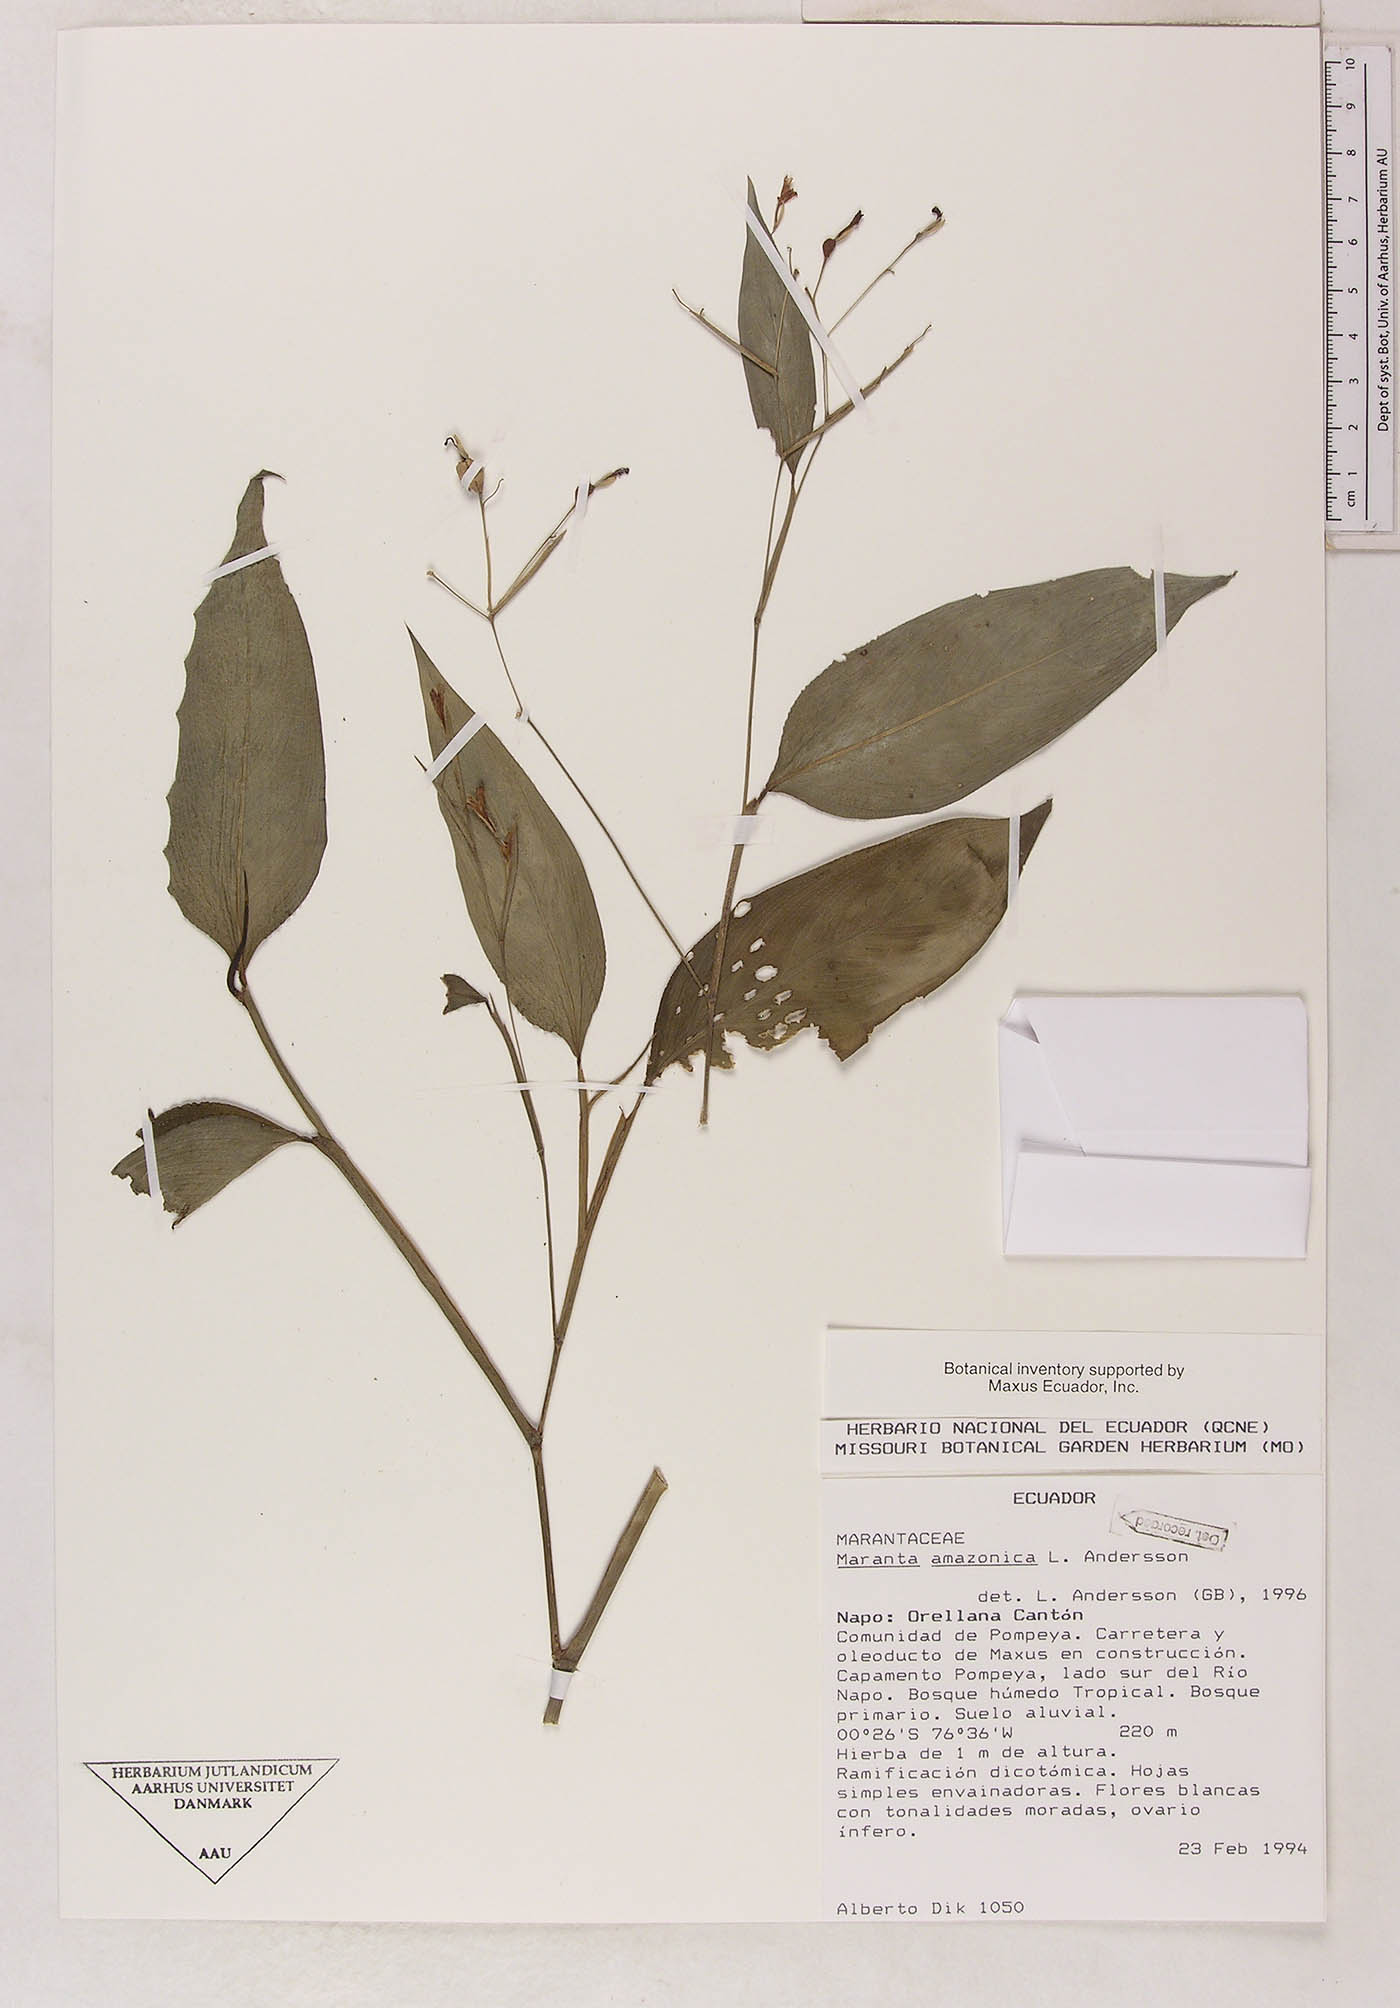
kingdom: Plantae
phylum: Tracheophyta
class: Liliopsida
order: Zingiberales
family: Marantaceae
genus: Maranta
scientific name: Maranta amazonica
